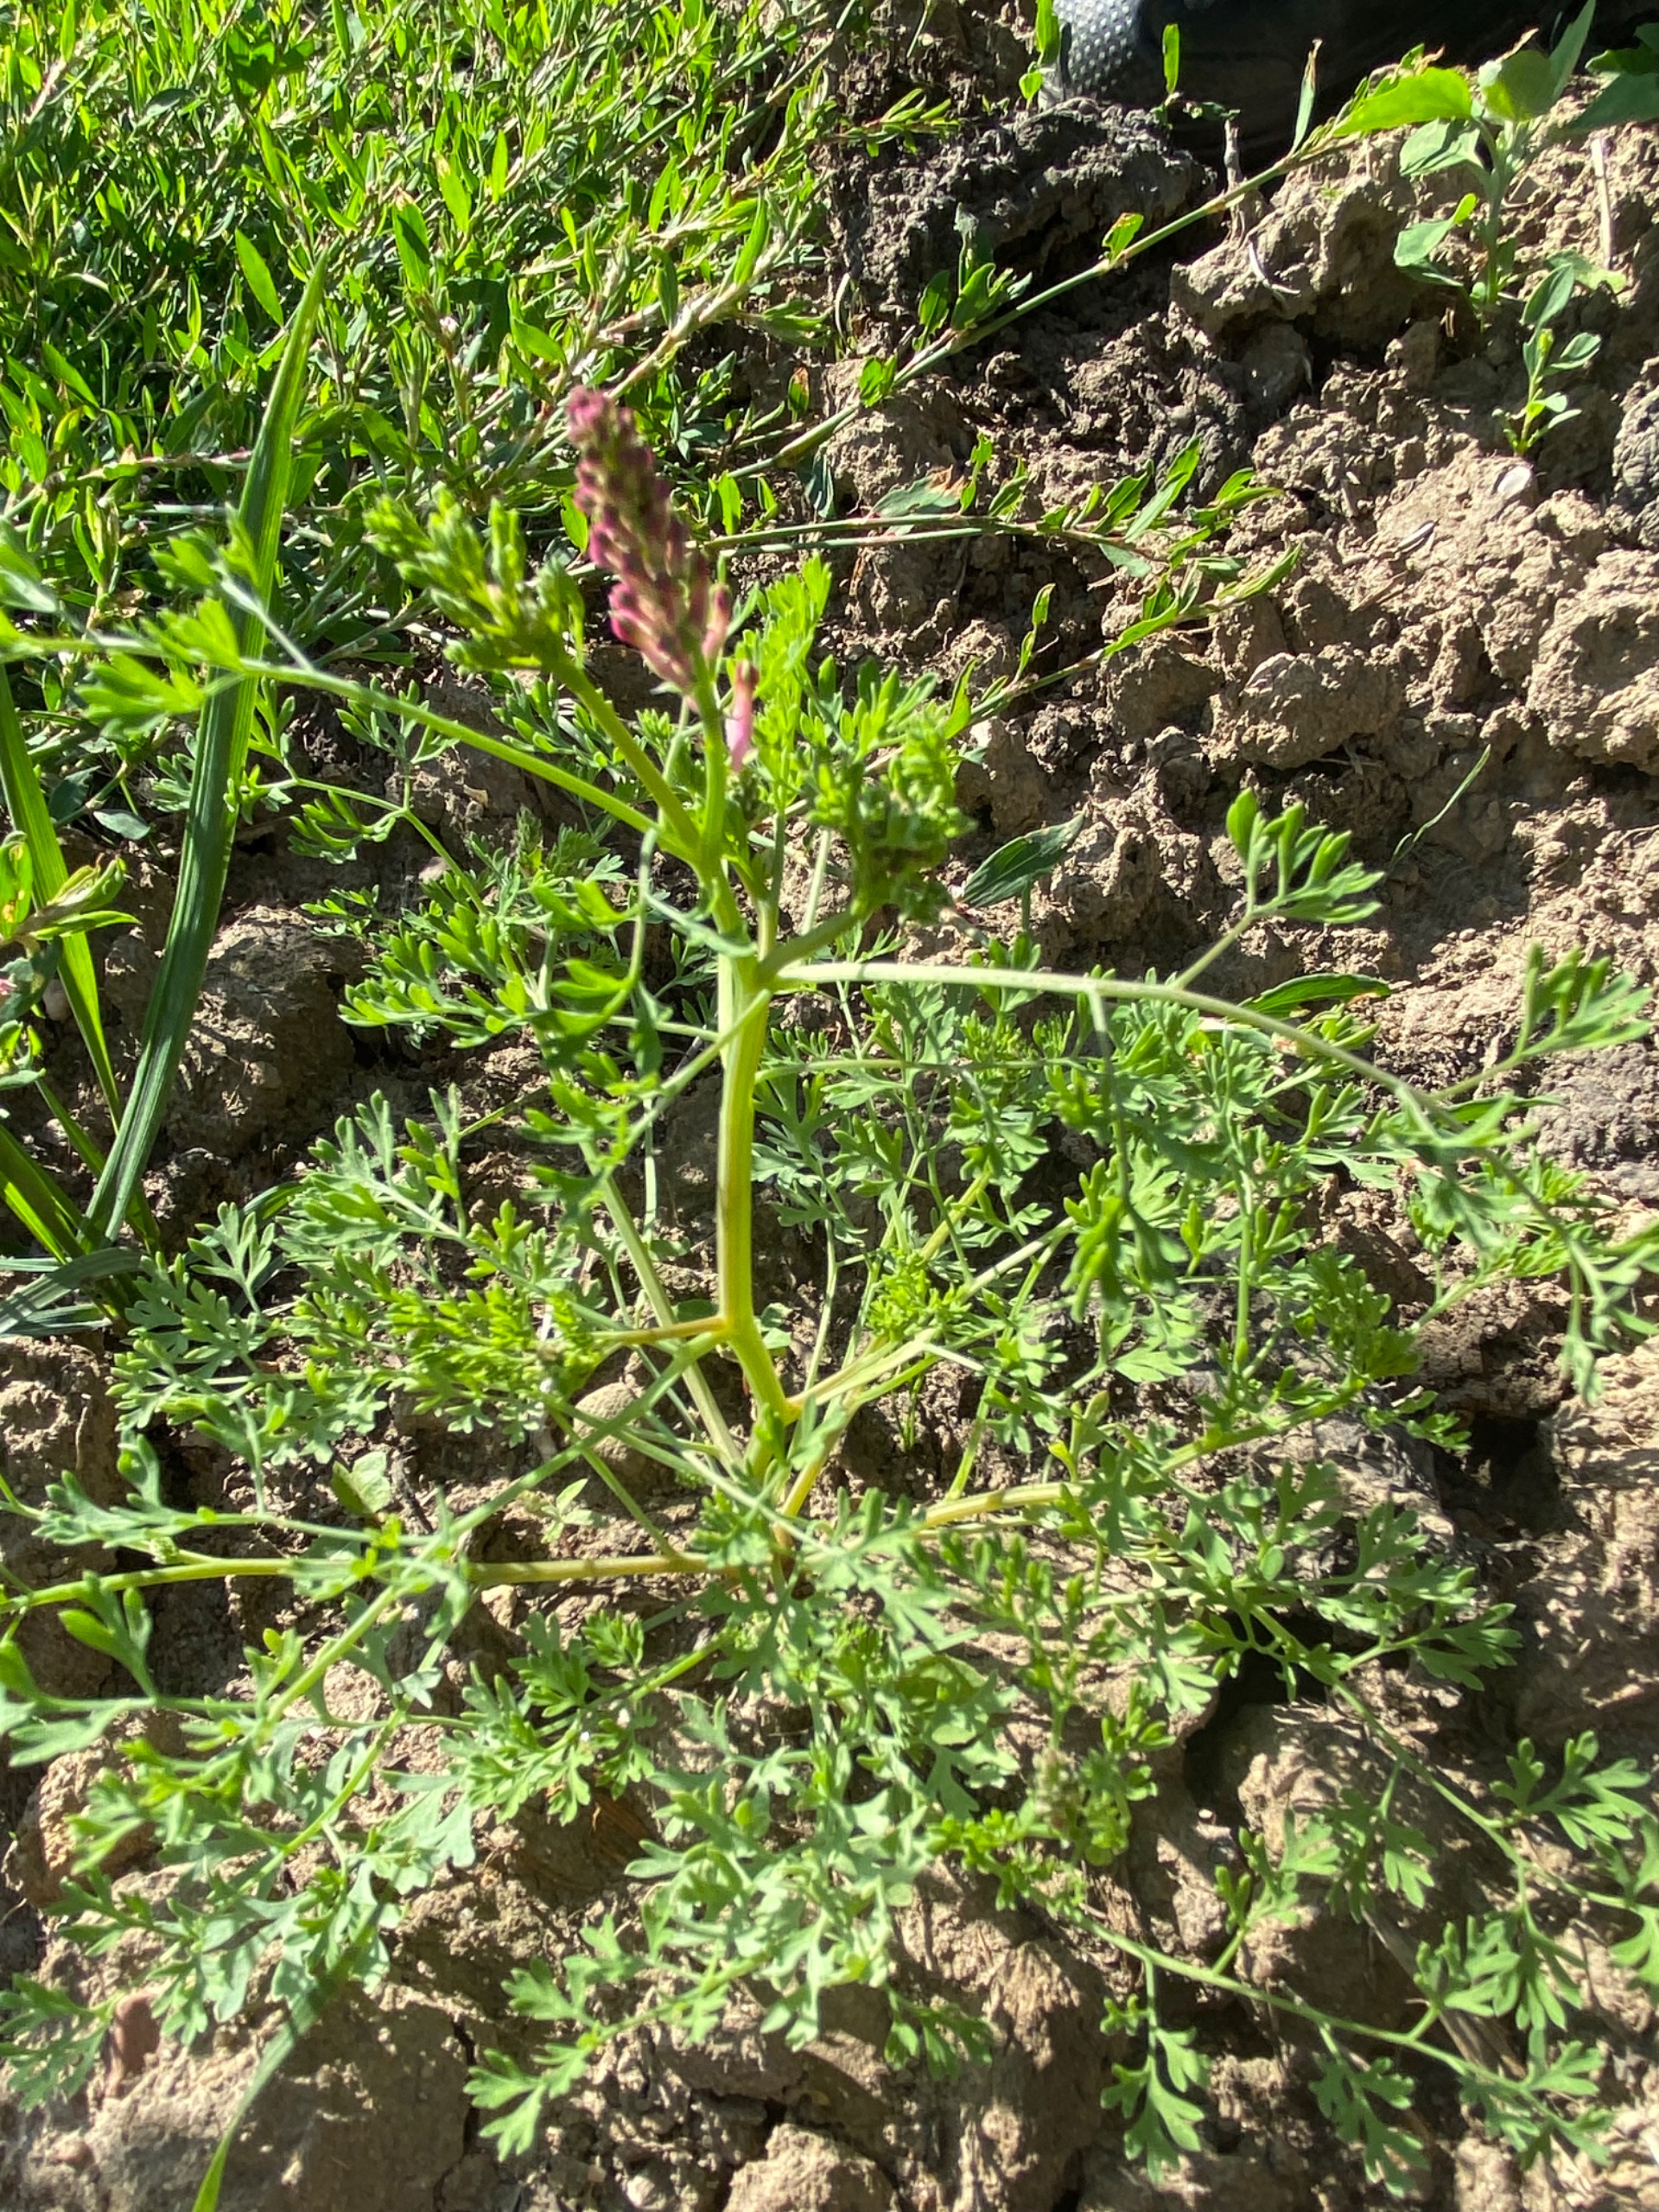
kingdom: Plantae
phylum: Tracheophyta
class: Magnoliopsida
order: Ranunculales
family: Papaveraceae
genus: Fumaria
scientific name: Fumaria officinalis
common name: Læge-jordrøg
